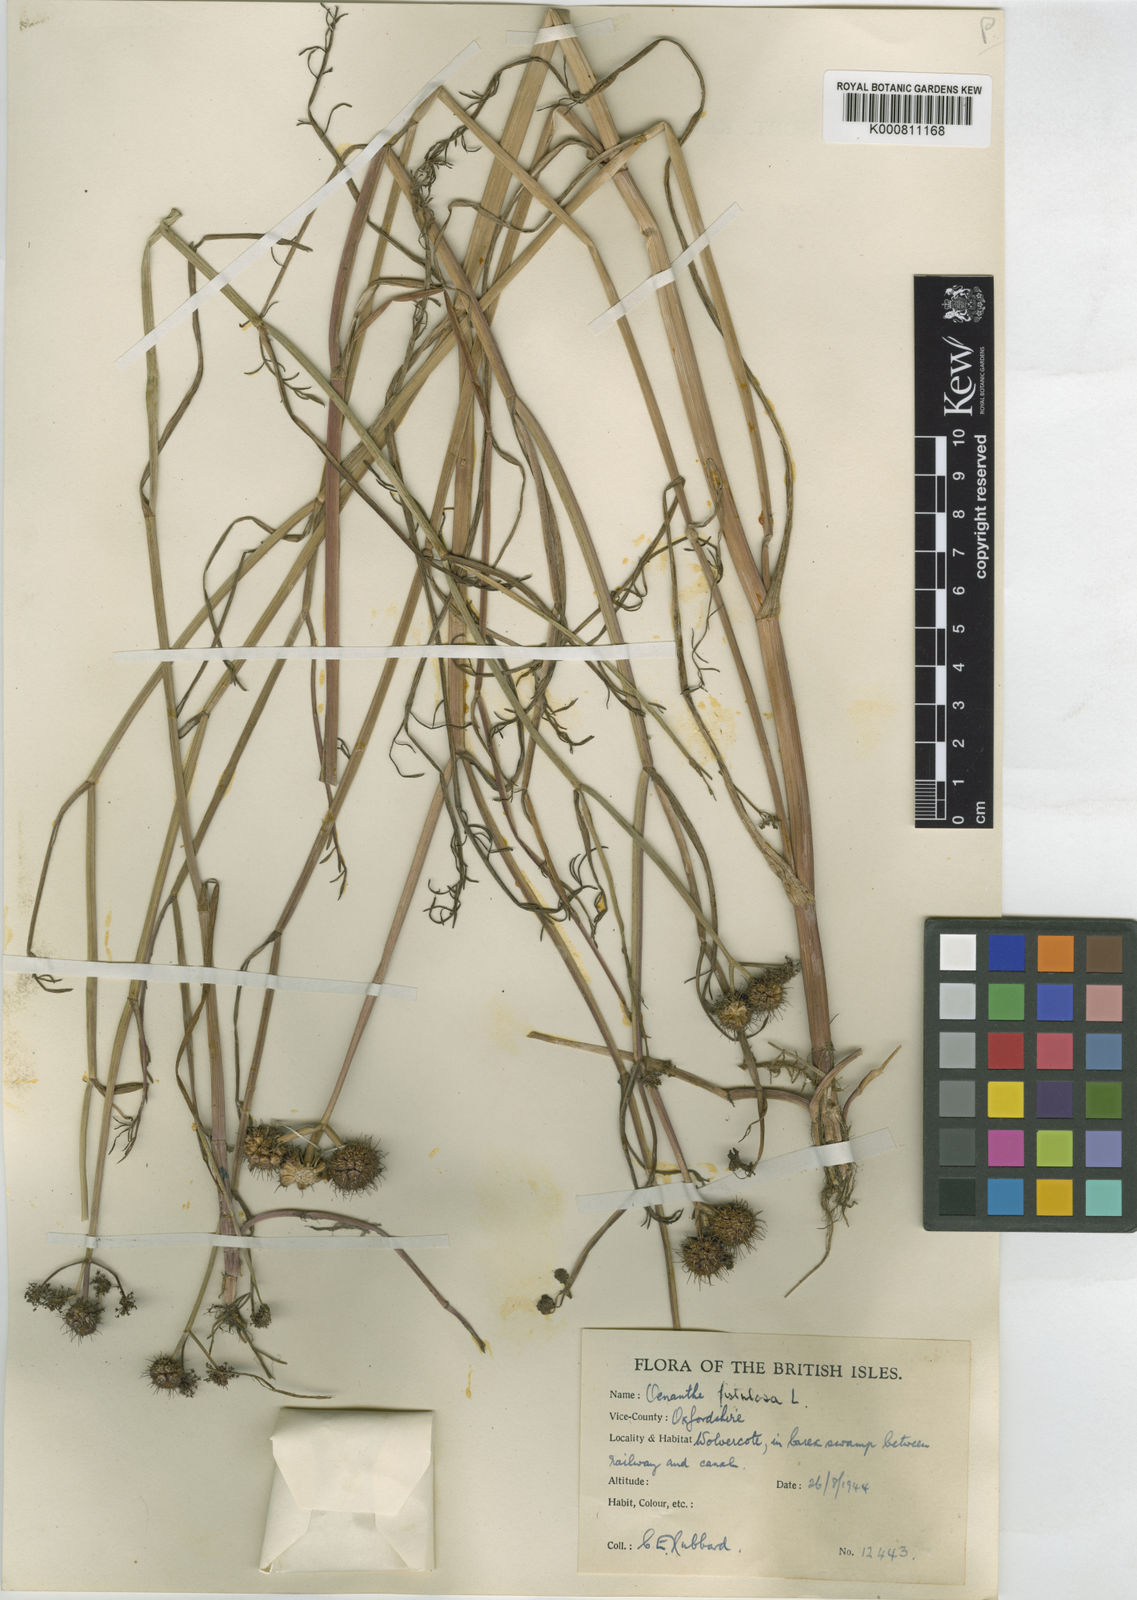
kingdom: Plantae
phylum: Tracheophyta
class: Magnoliopsida
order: Apiales
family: Apiaceae
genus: Oenanthe
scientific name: Oenanthe fistulosa
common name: Tubular water-dropwort
